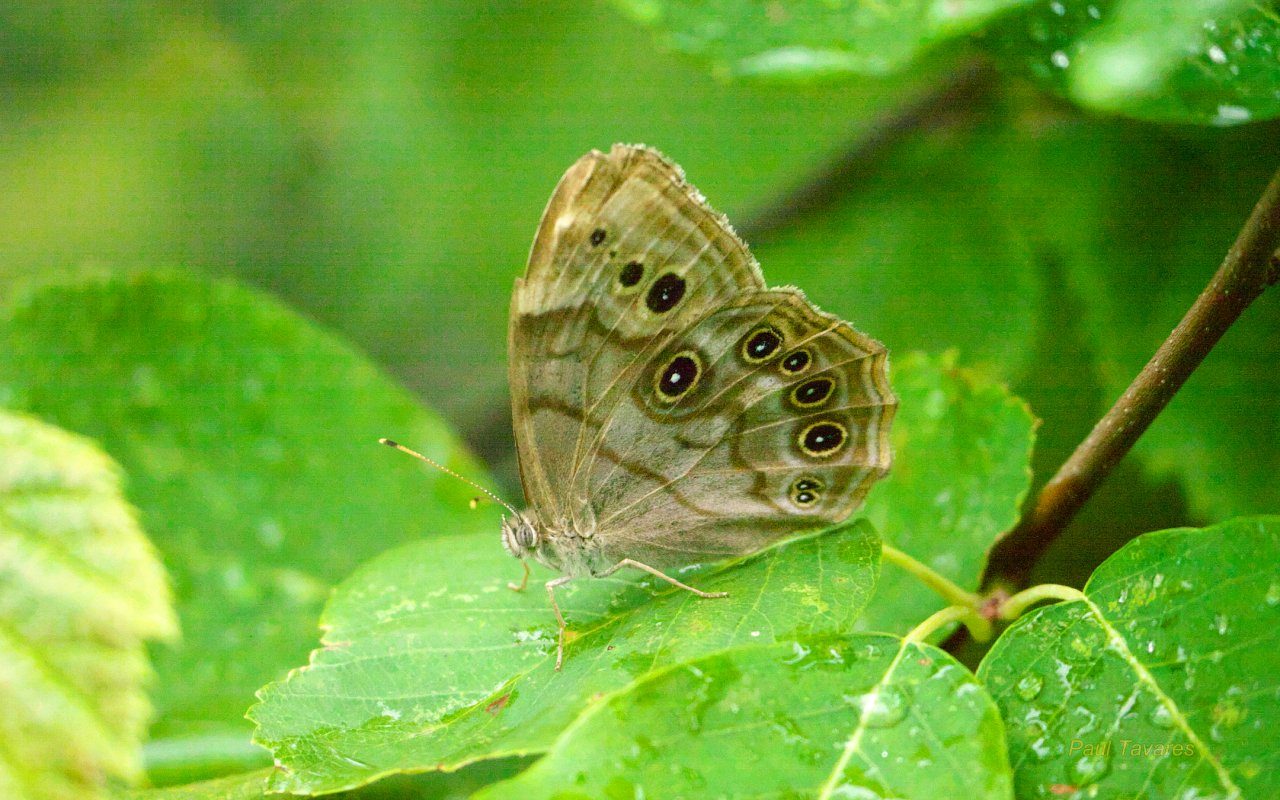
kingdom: Animalia
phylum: Arthropoda
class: Insecta
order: Lepidoptera
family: Nymphalidae
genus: Lethe
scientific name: Lethe anthedon
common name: Northern Pearly-Eye
